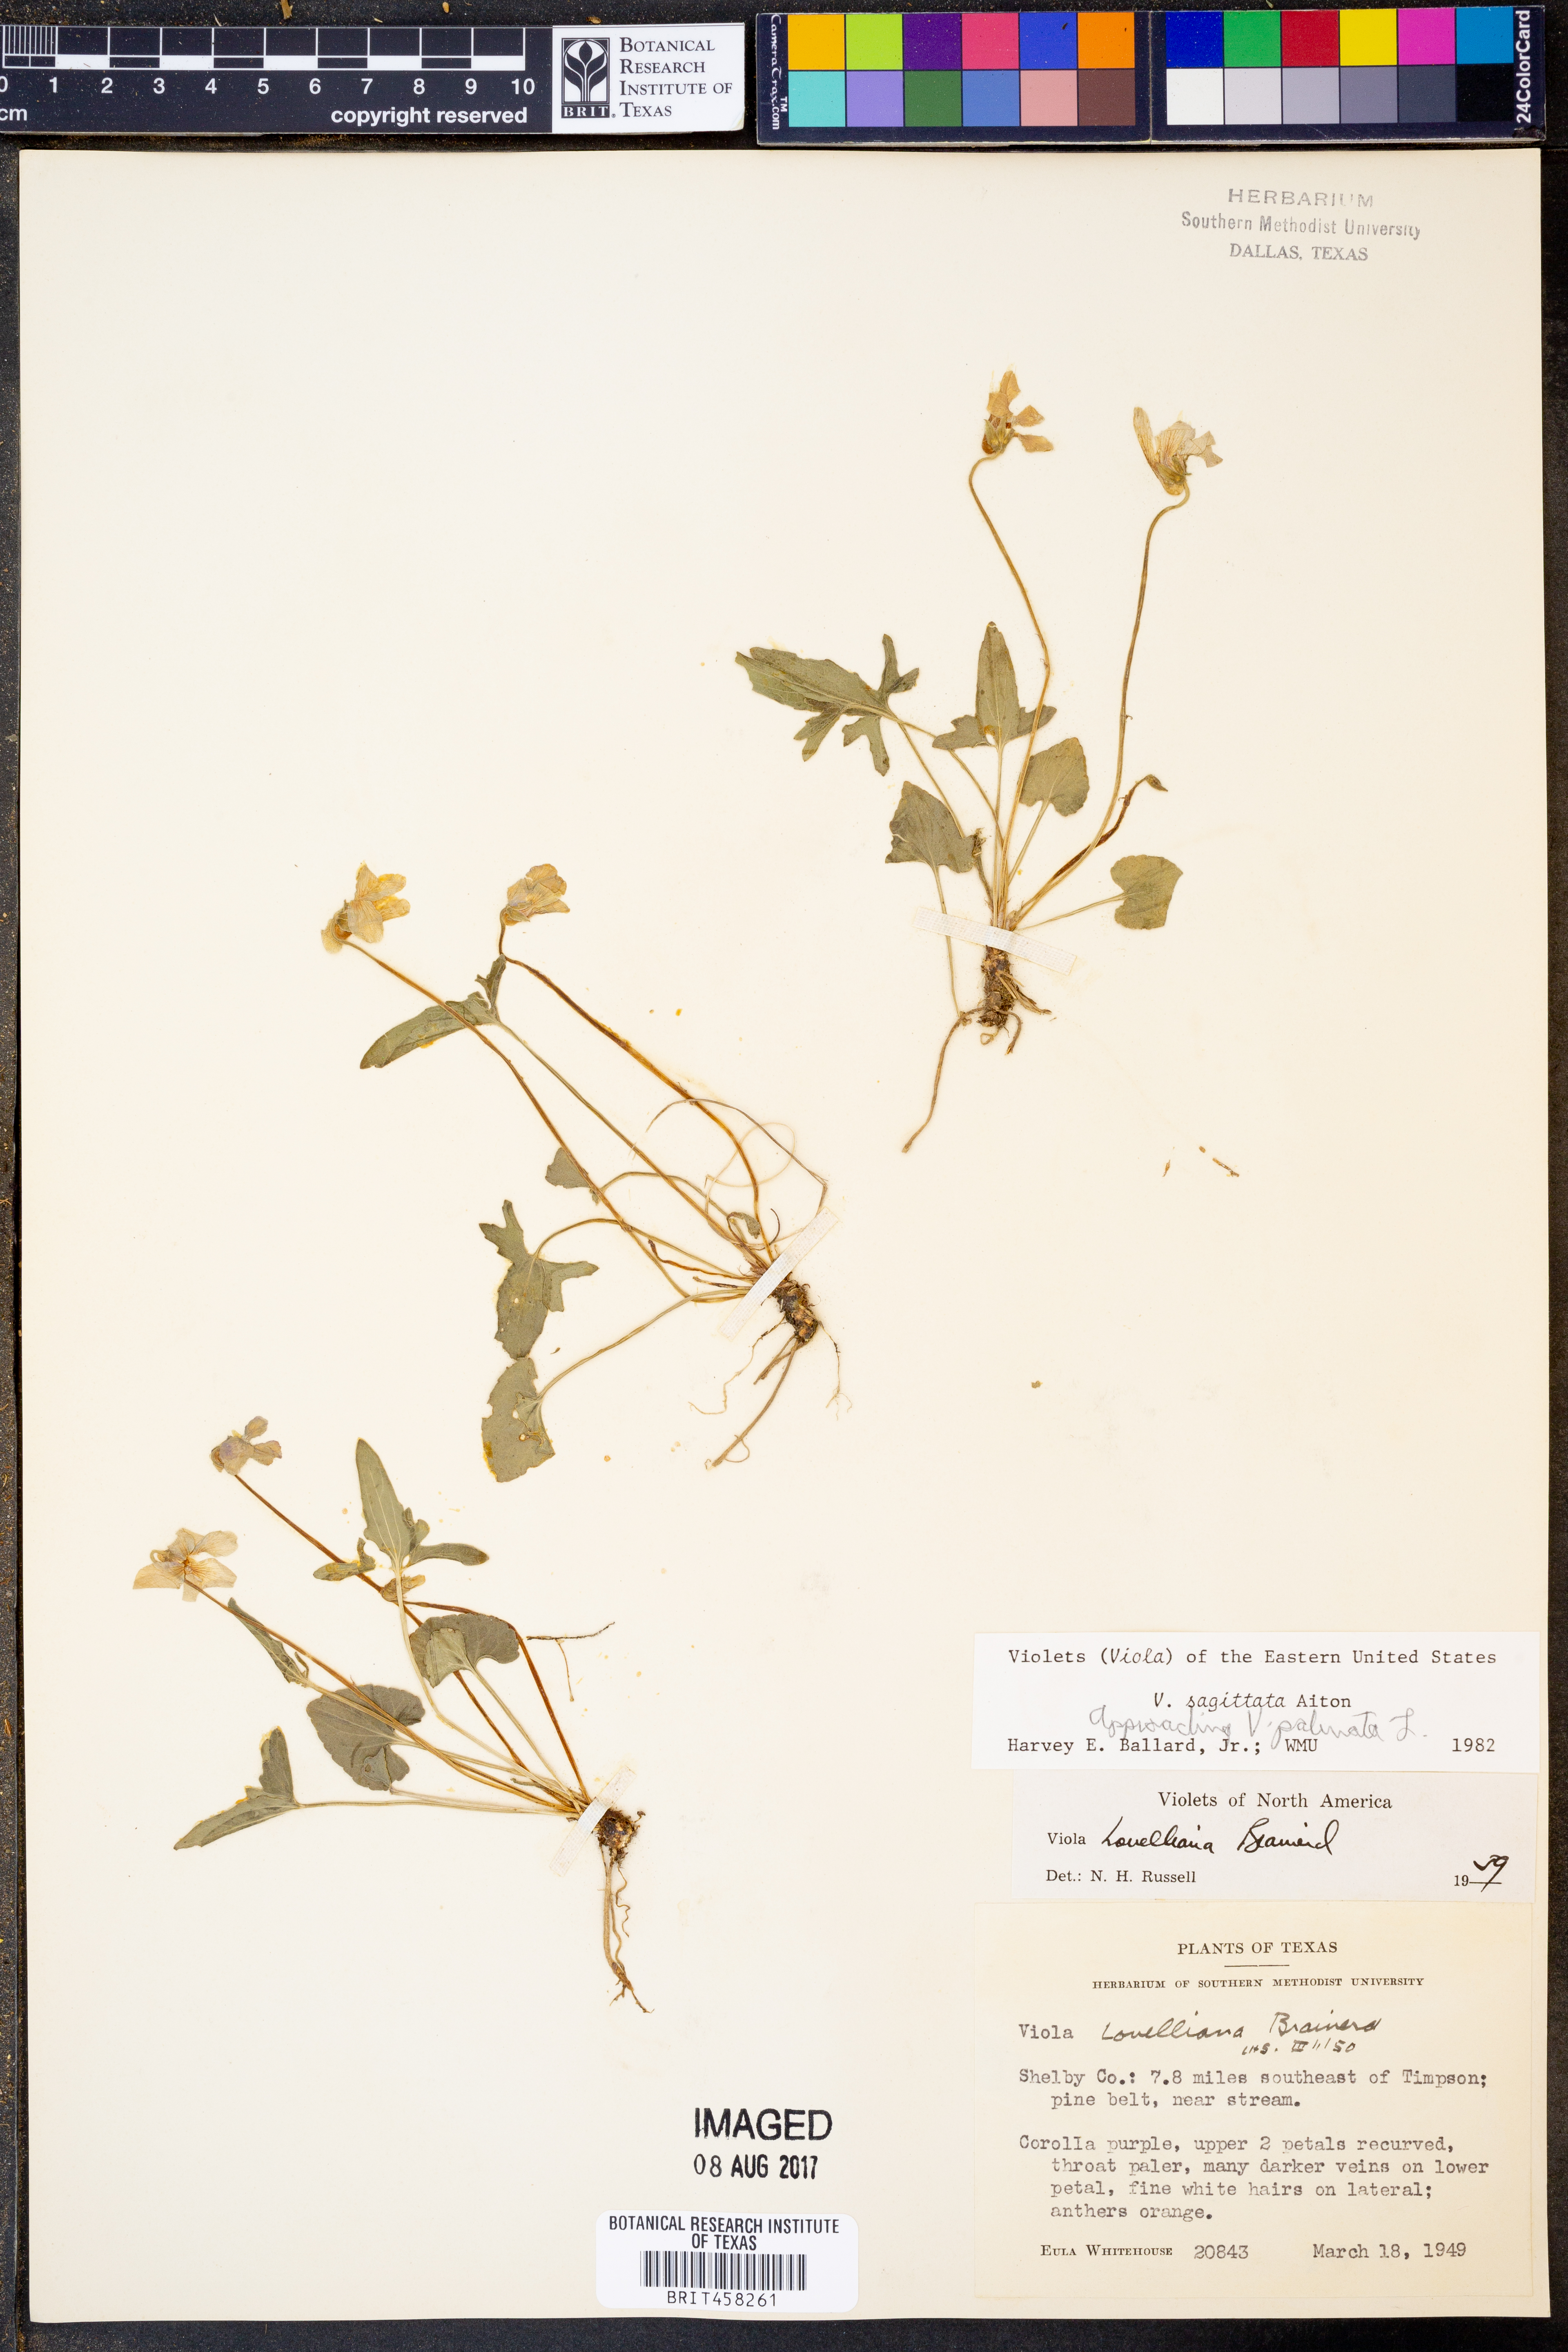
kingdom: Plantae
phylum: Tracheophyta
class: Magnoliopsida
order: Malpighiales
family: Violaceae
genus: Viola
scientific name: Viola sagittata
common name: Arrowhead violet
